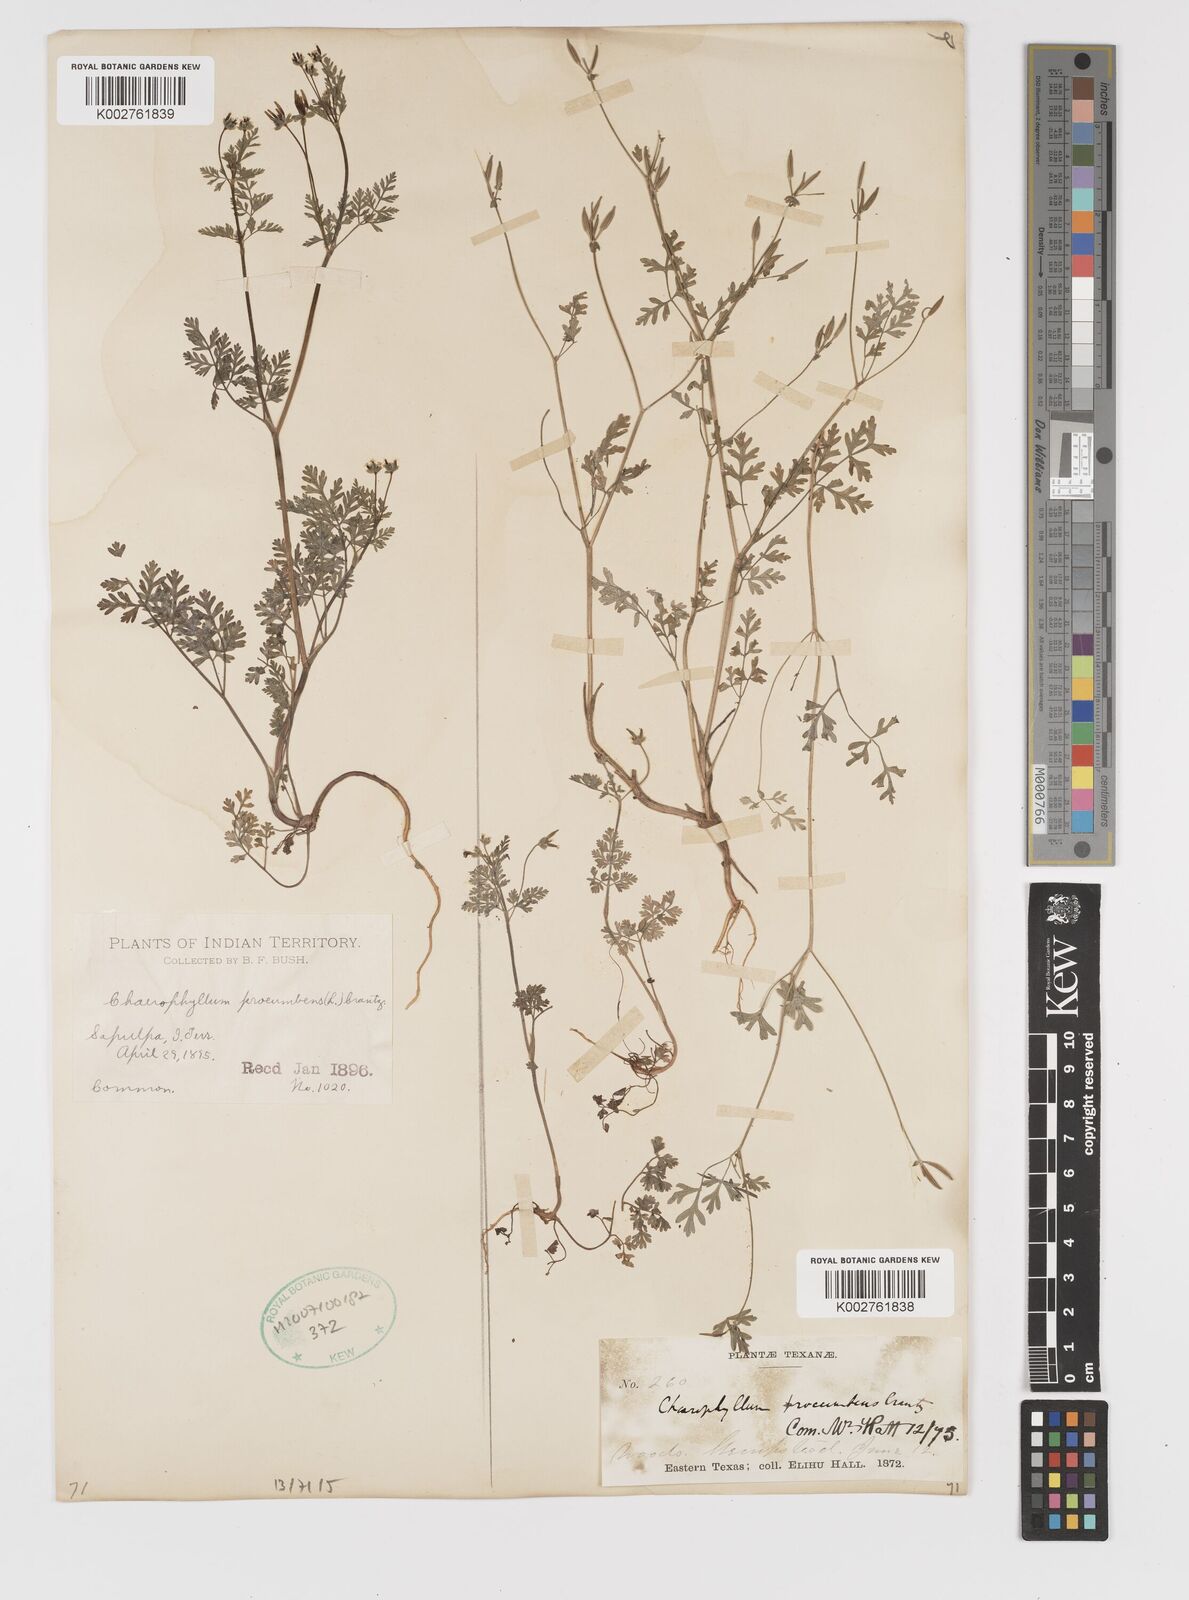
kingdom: Plantae
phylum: Tracheophyta
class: Magnoliopsida
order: Apiales
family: Apiaceae
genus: Chaerophyllum
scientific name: Chaerophyllum procumbens
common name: Spreading chervil
